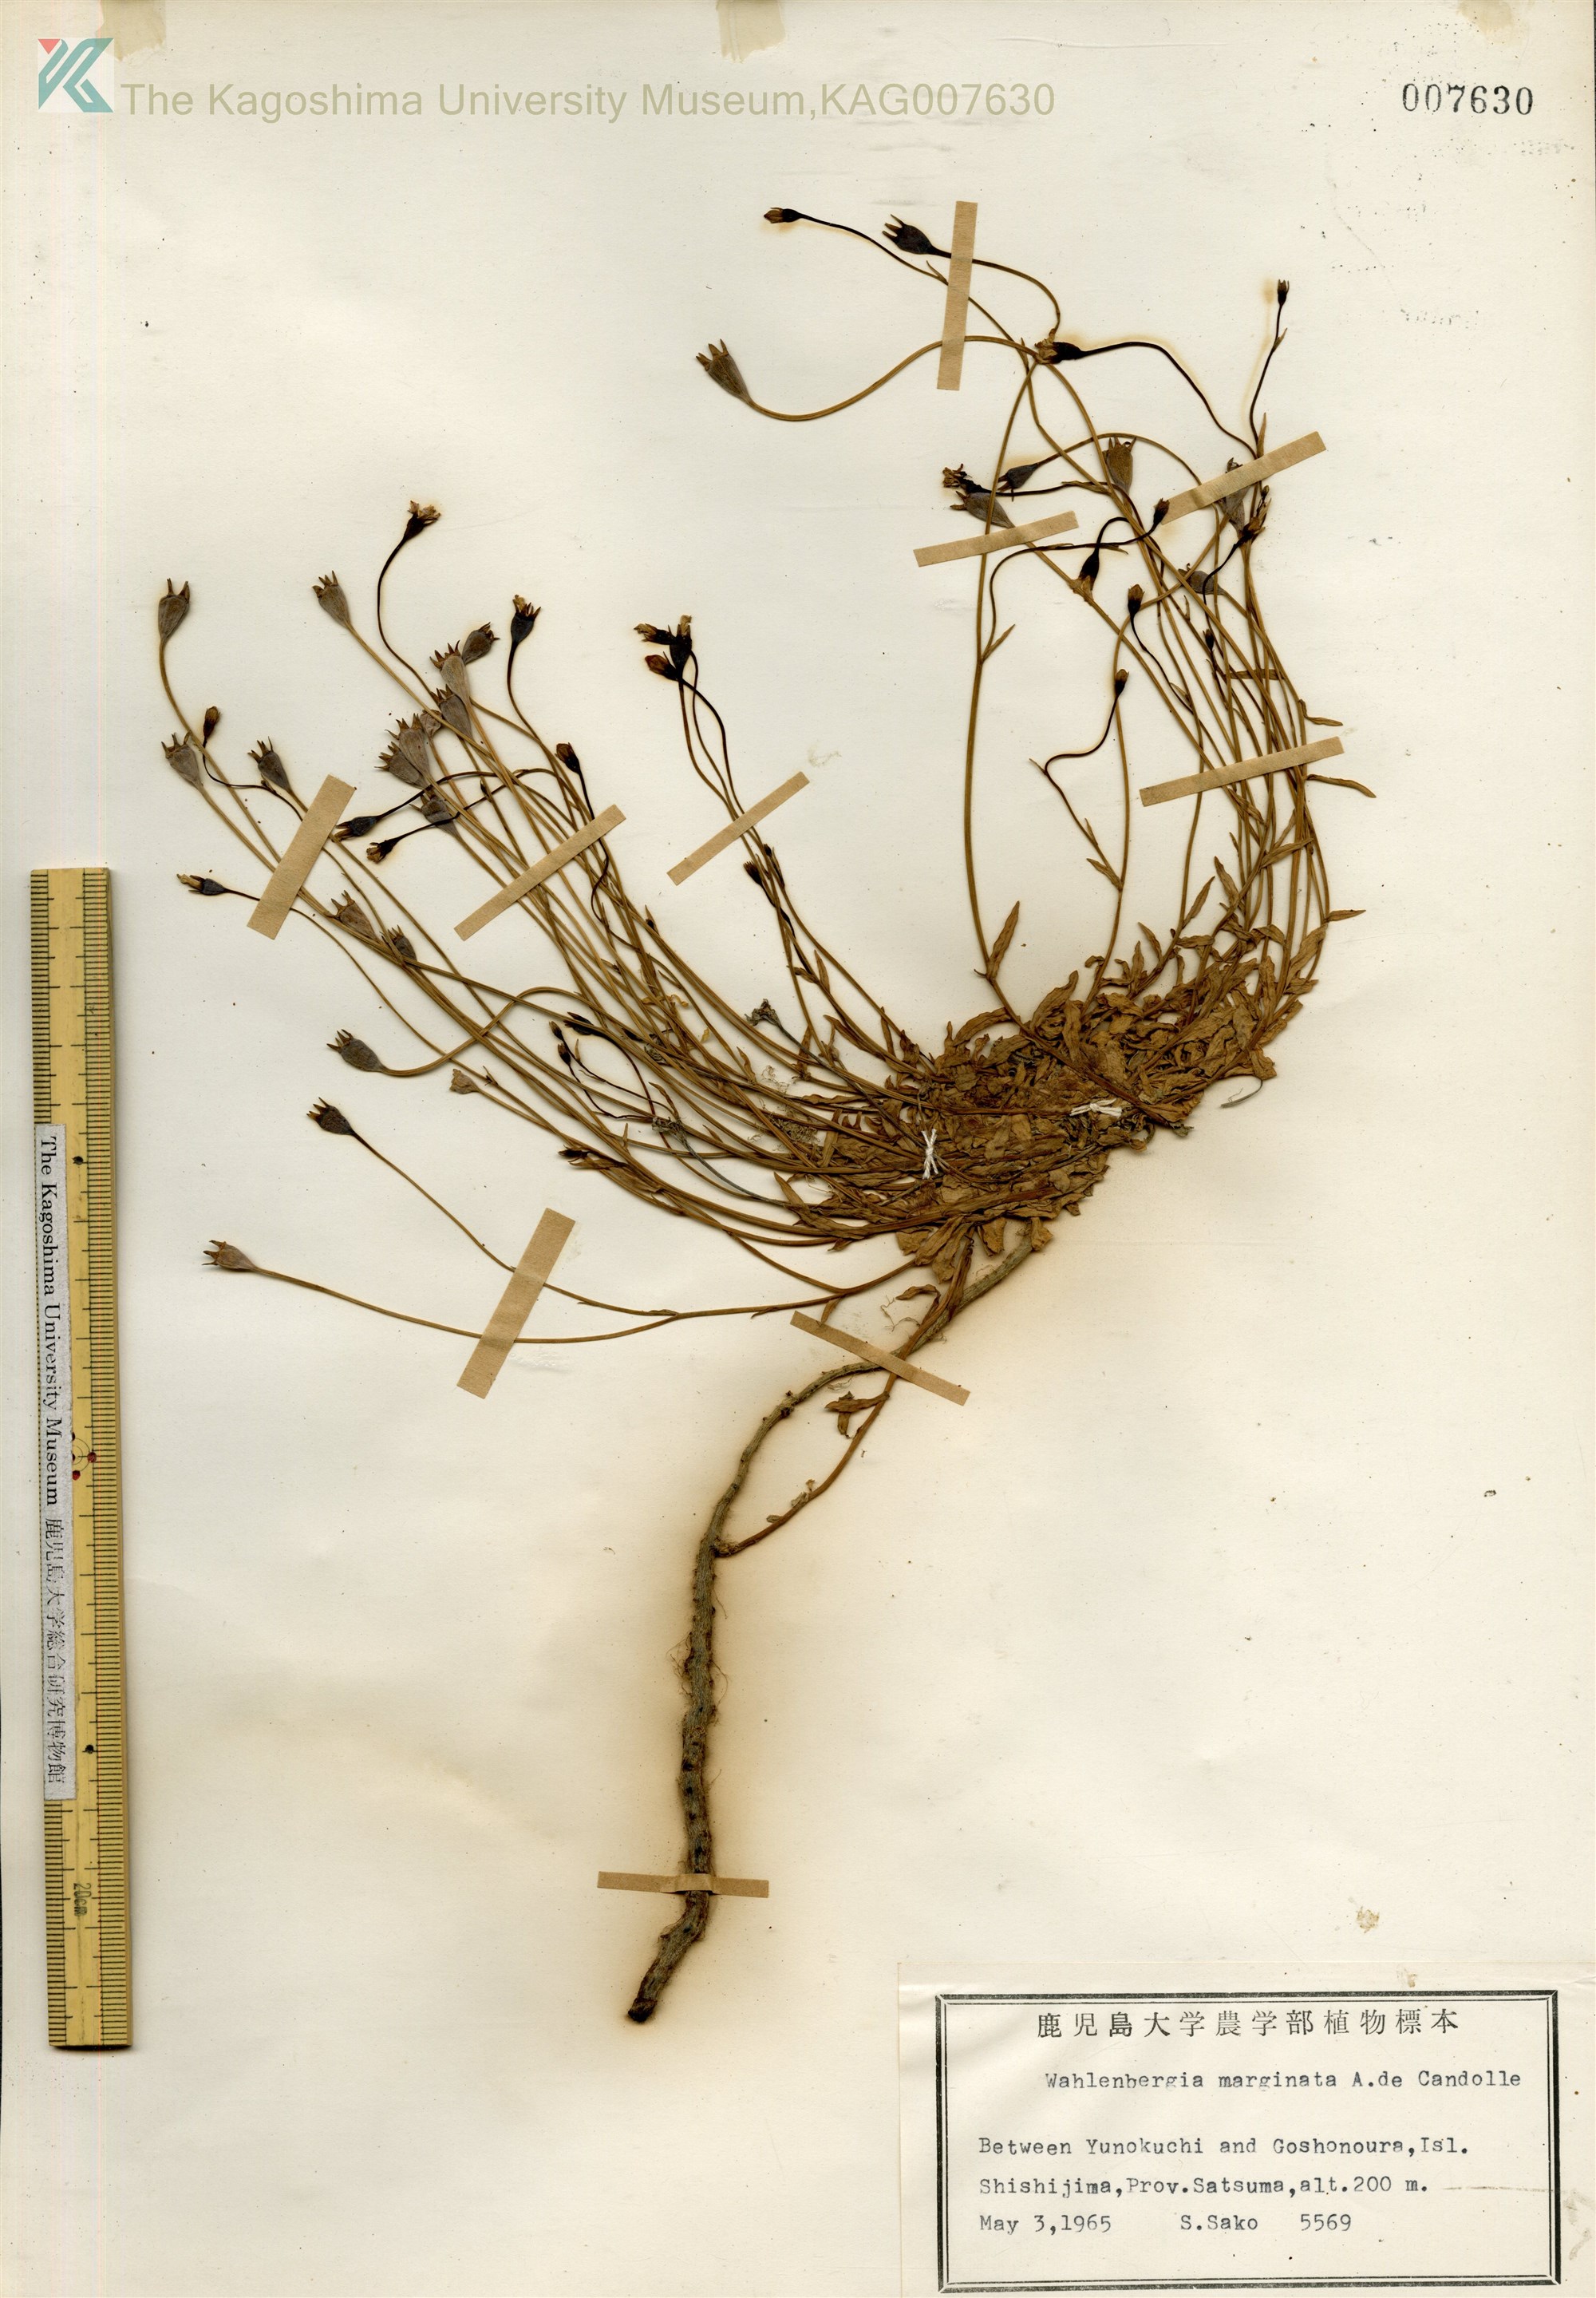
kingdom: Plantae
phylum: Tracheophyta
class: Magnoliopsida
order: Asterales
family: Campanulaceae
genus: Wahlenbergia
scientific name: Wahlenbergia marginata
